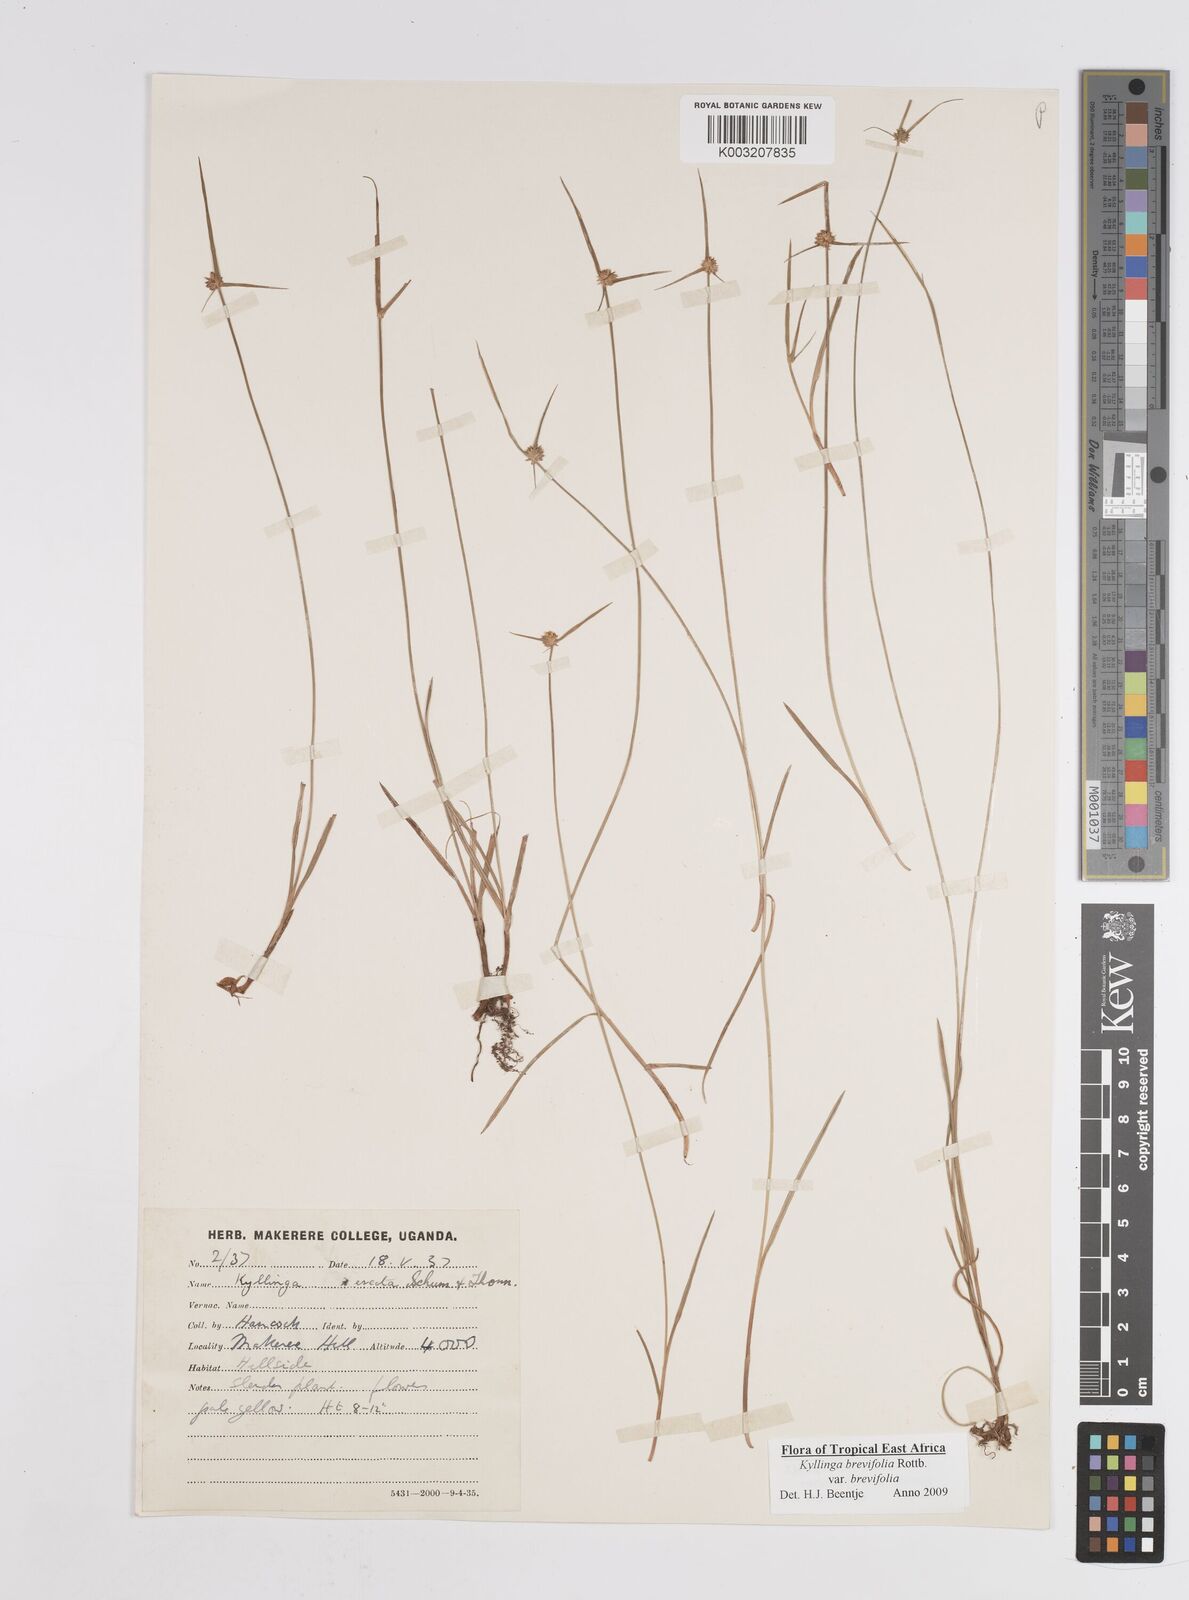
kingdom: Plantae
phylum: Tracheophyta
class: Liliopsida
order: Poales
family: Cyperaceae
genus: Cyperus
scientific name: Cyperus erectus
